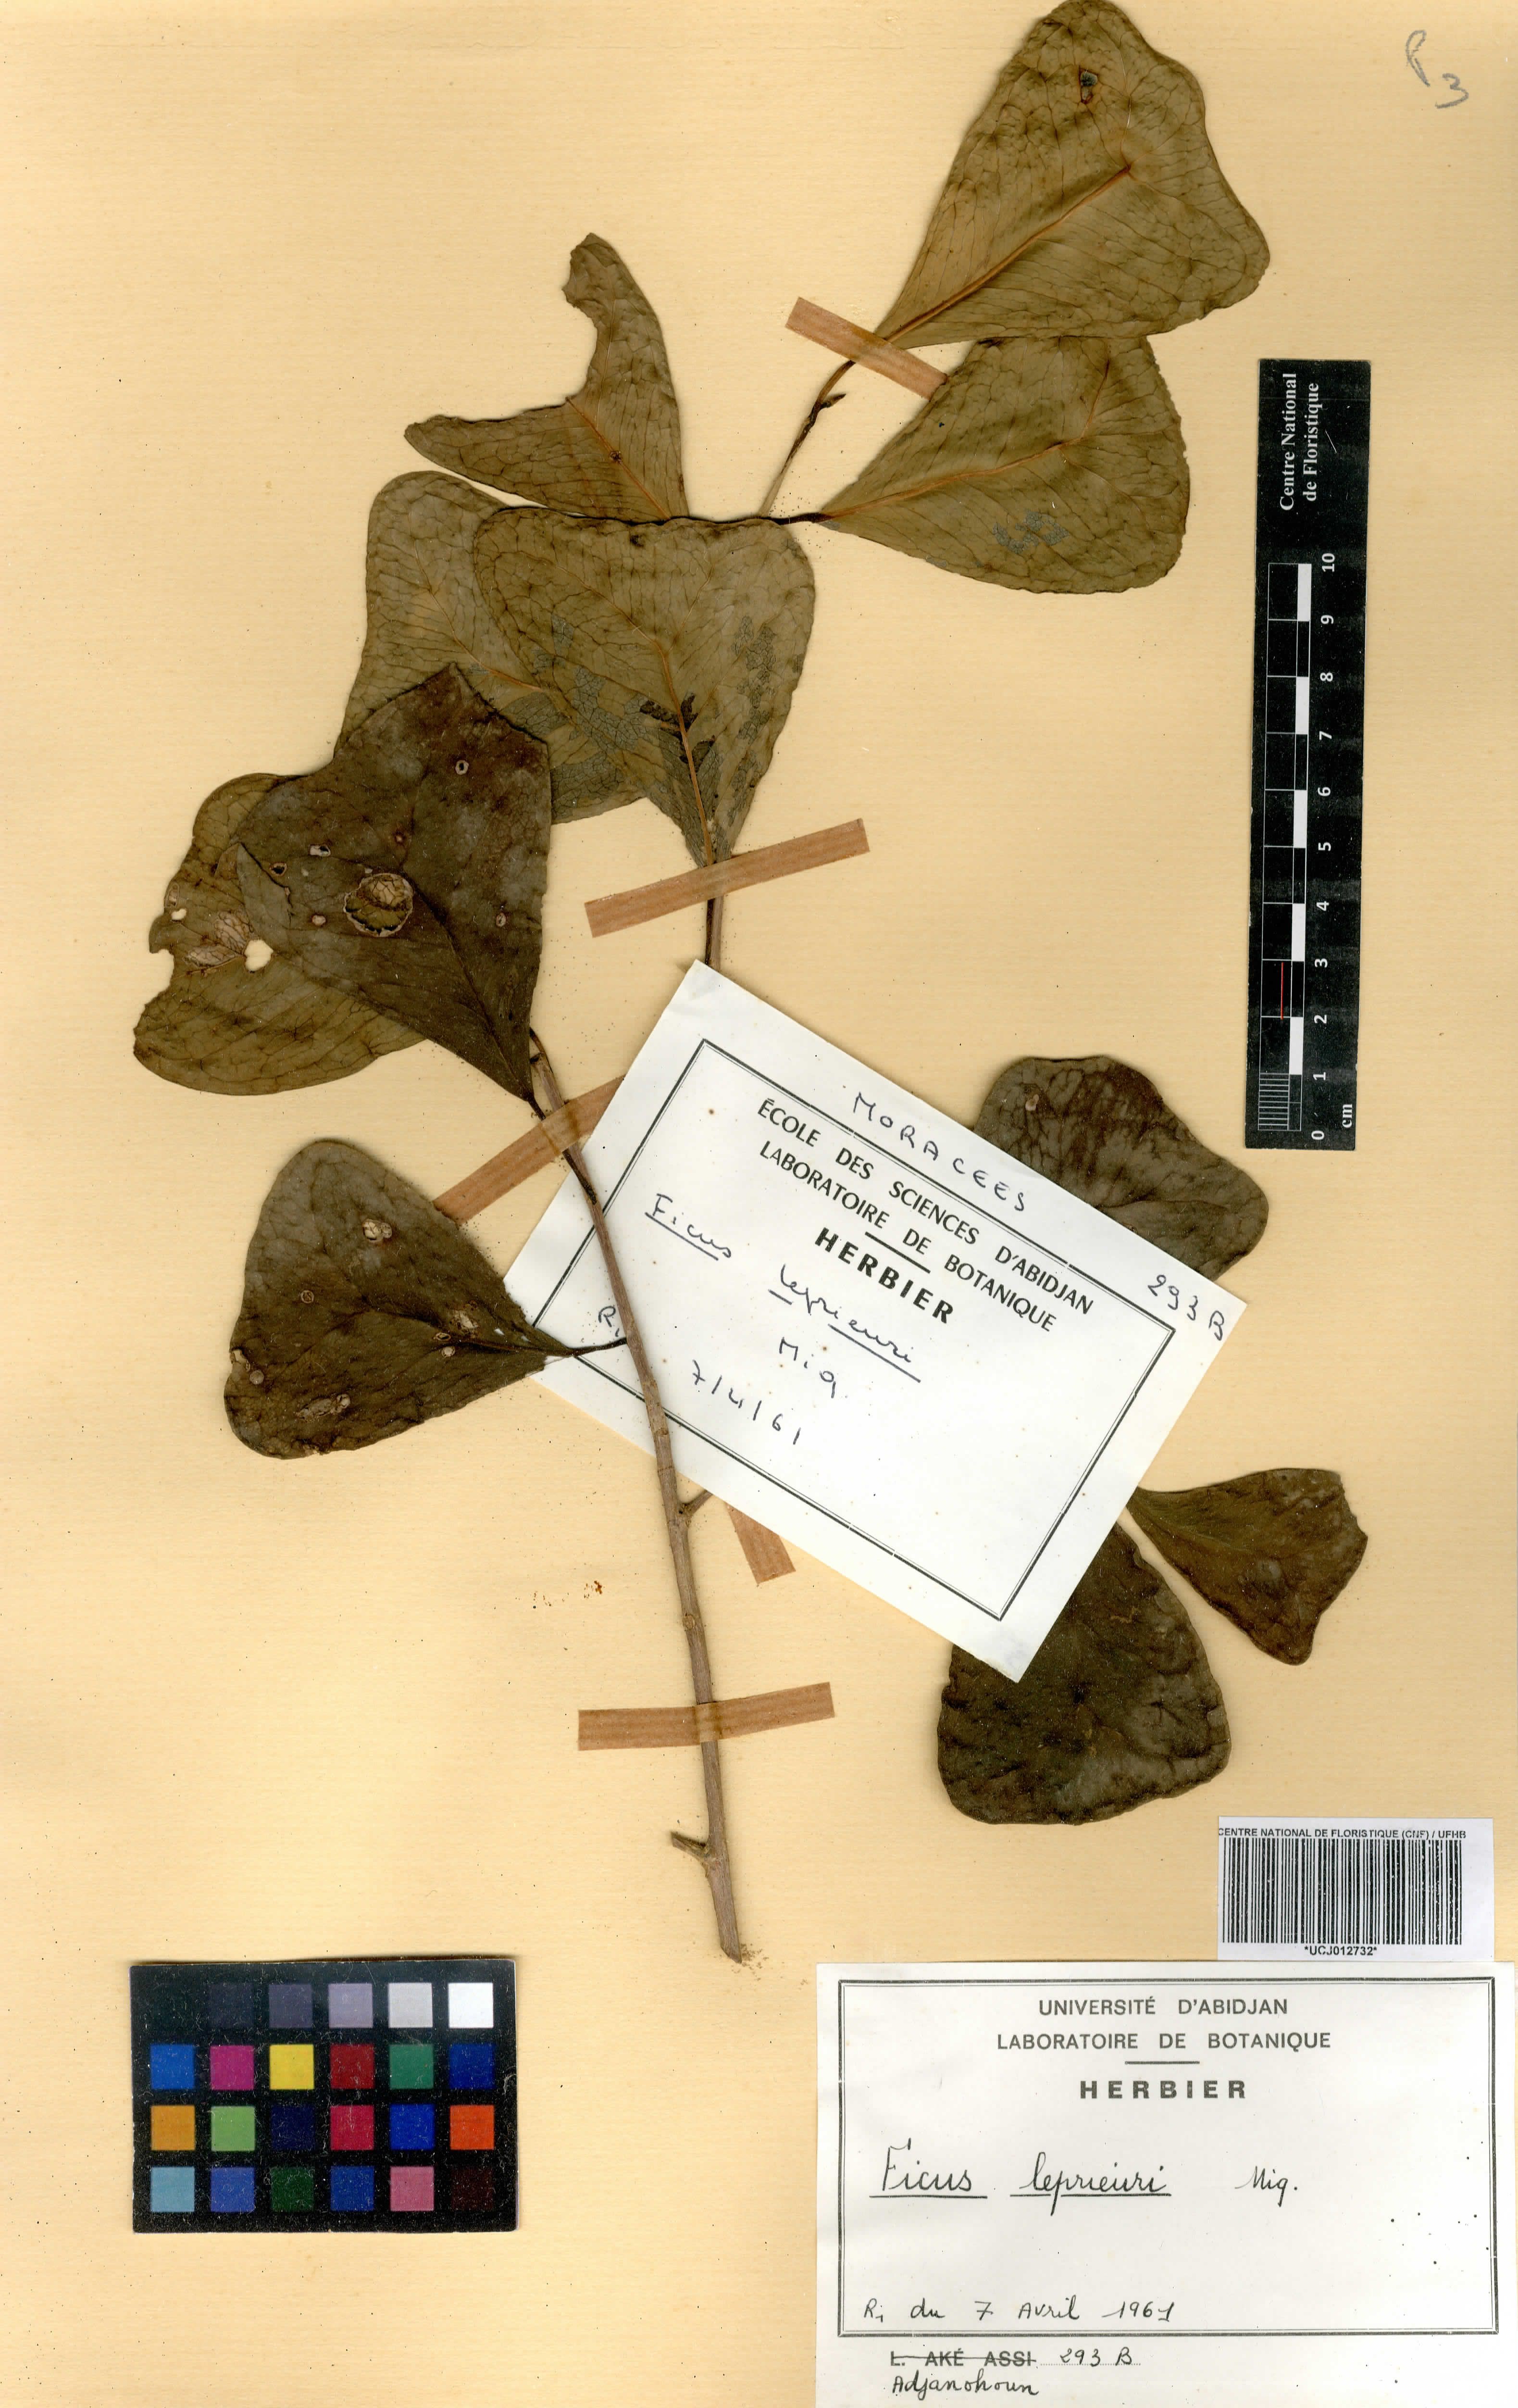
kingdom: Plantae
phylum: Tracheophyta
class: Magnoliopsida
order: Rosales
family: Moraceae
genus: Ficus
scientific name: Ficus natalensis
